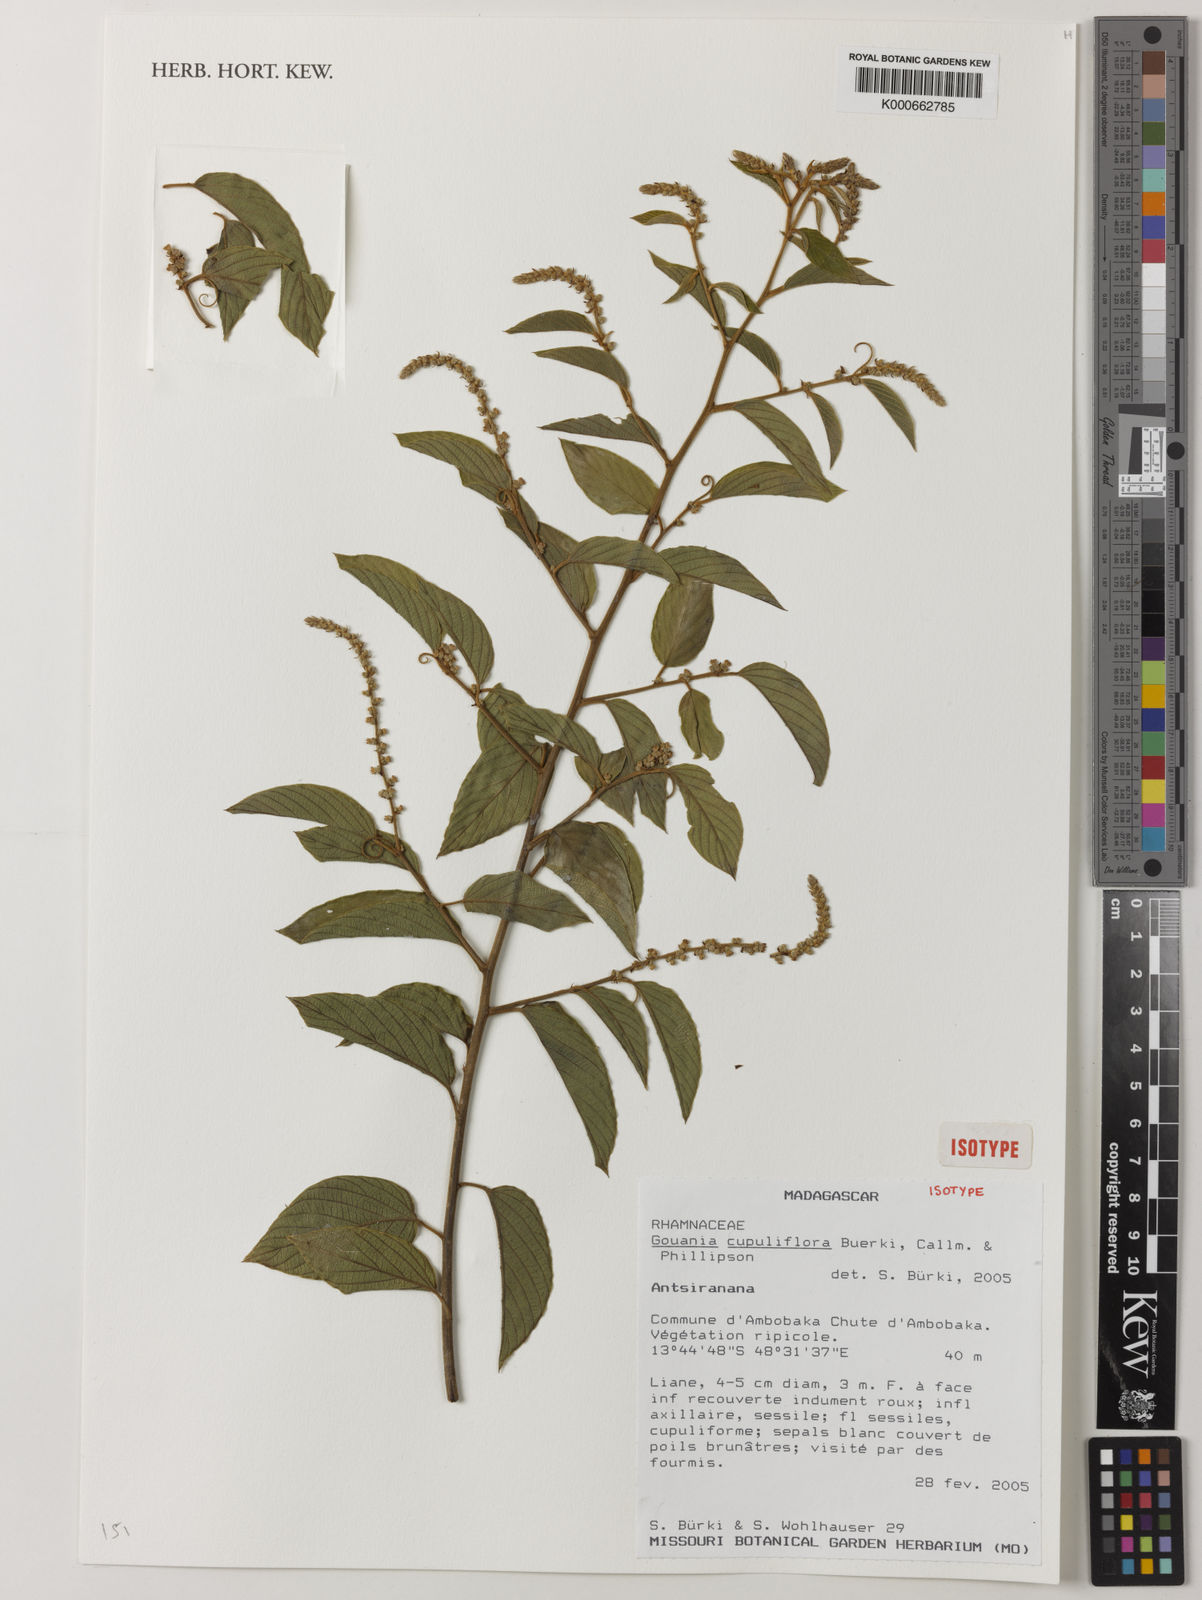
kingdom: Plantae
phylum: Tracheophyta
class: Magnoliopsida
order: Rosales
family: Rhamnaceae
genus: Gouania
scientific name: Gouania cupreifolia
